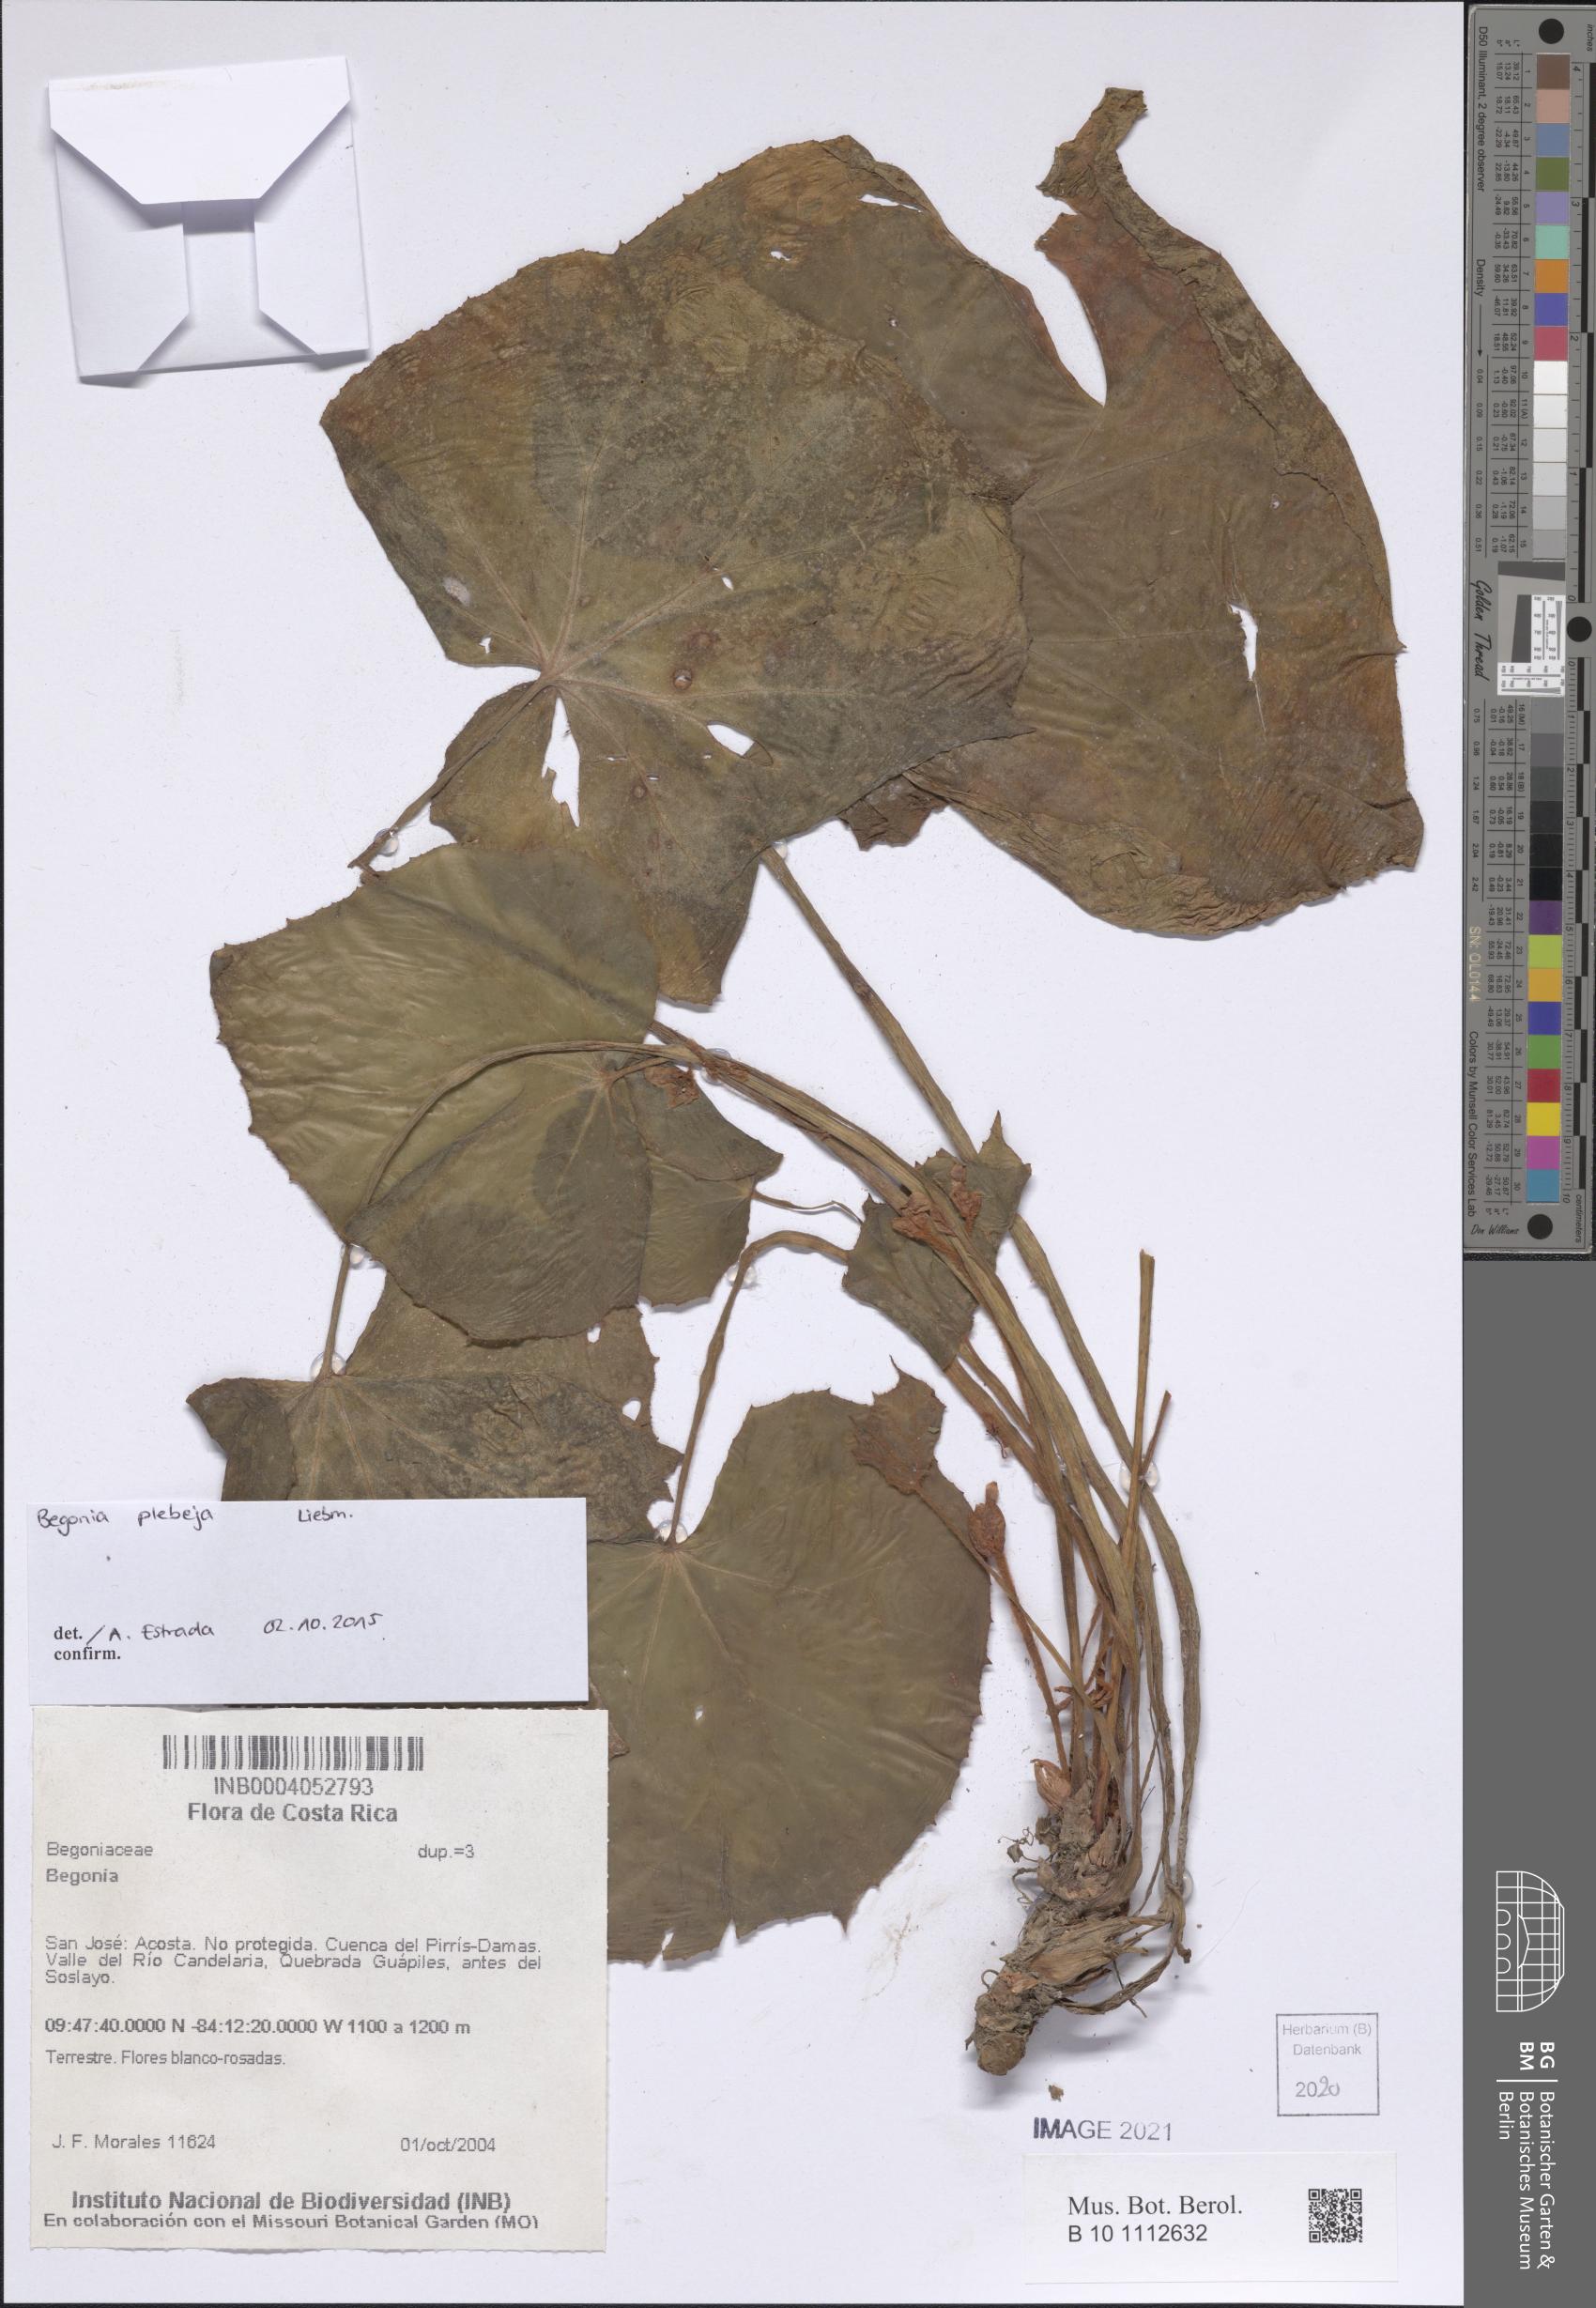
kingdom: Plantae
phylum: Tracheophyta
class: Magnoliopsida
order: Cucurbitales
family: Begoniaceae
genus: Begonia
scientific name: Begonia
